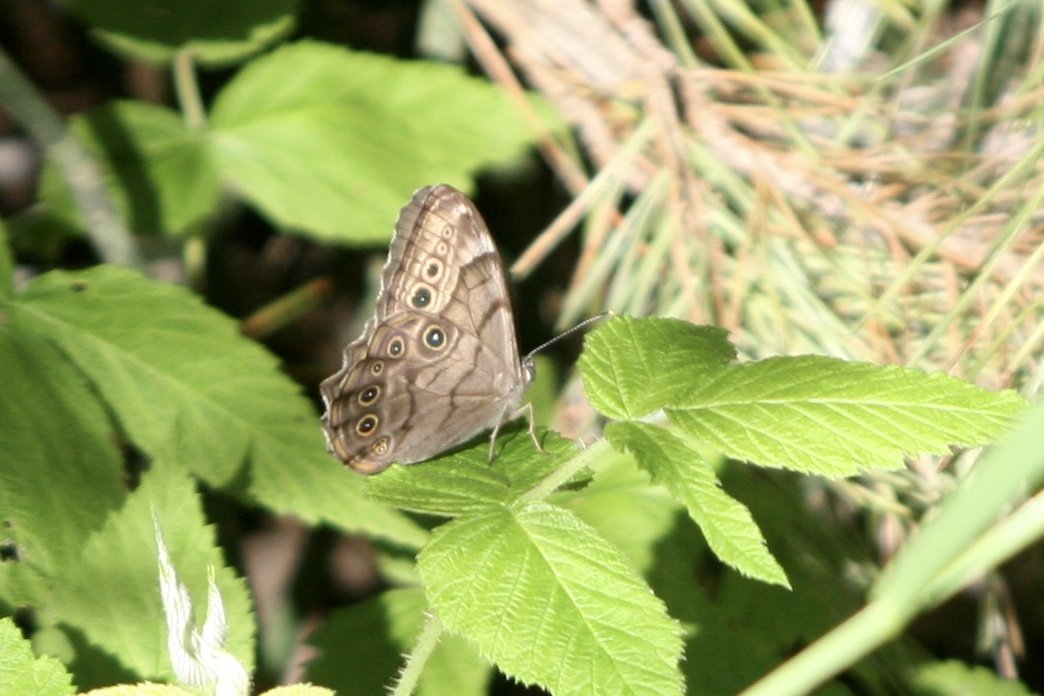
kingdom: Animalia
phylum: Arthropoda
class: Insecta
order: Lepidoptera
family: Nymphalidae
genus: Lethe
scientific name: Lethe anthedon
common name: Northern Pearly-Eye
